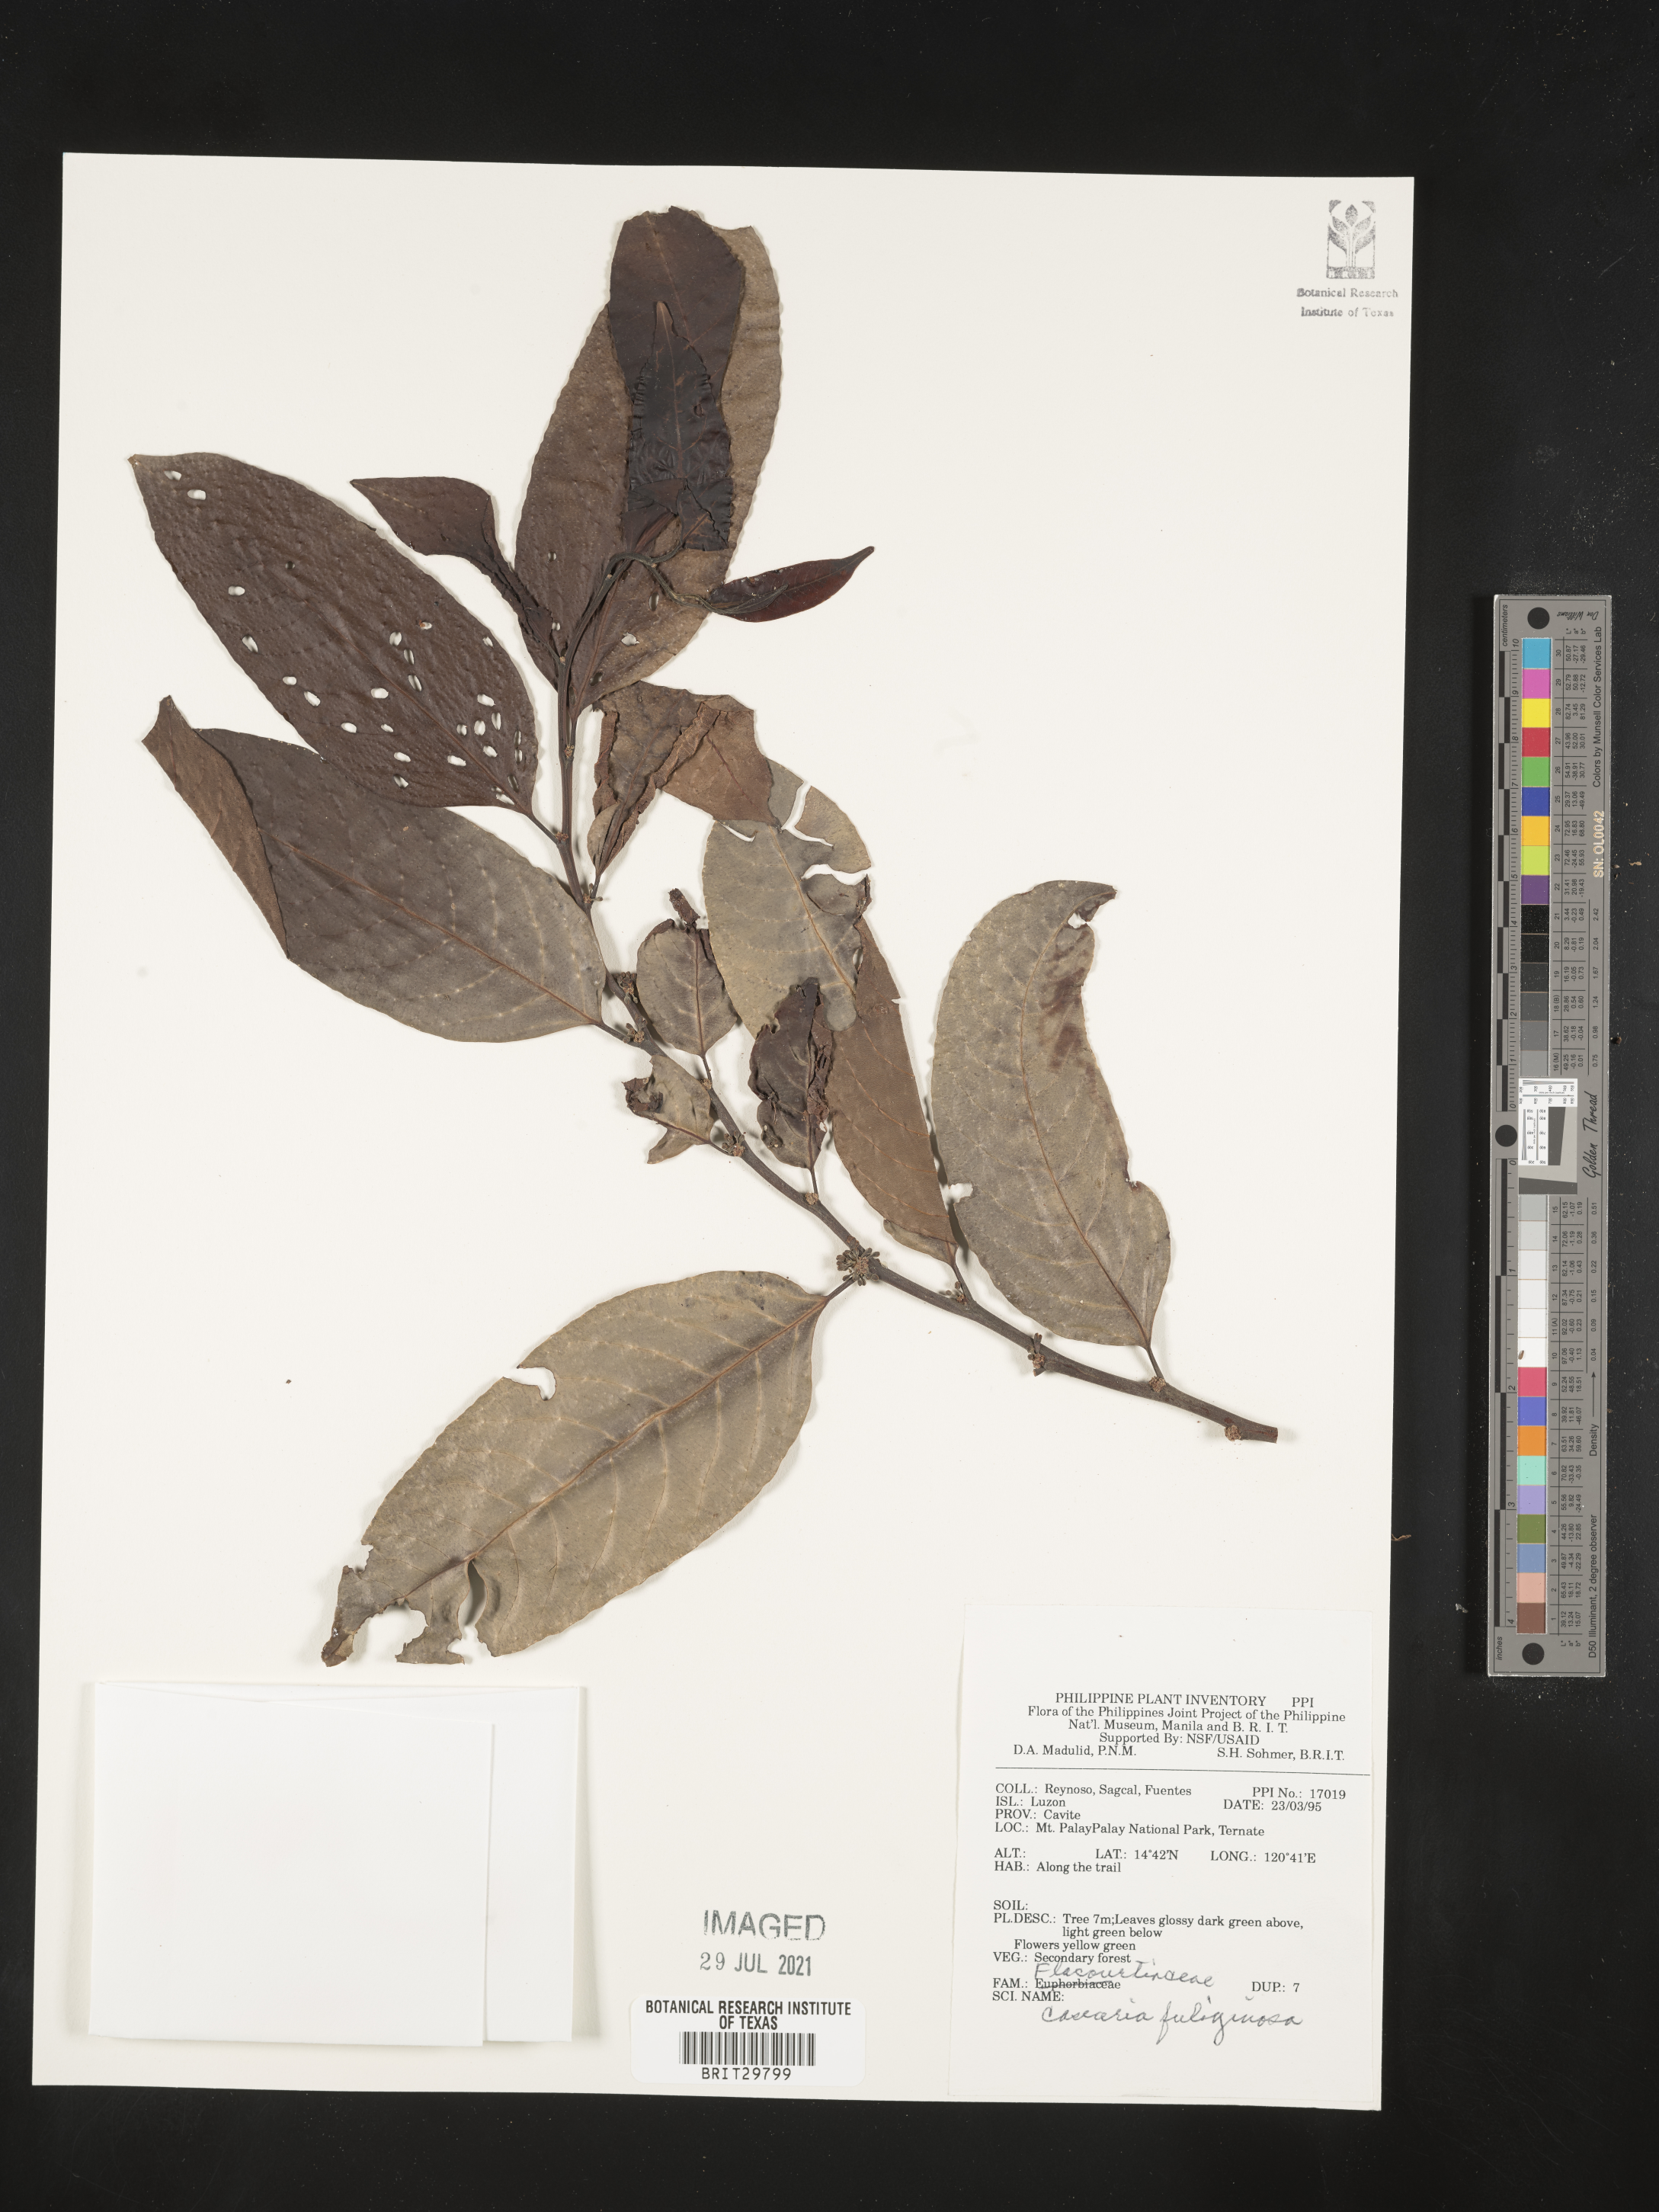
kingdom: Plantae
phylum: Tracheophyta
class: Magnoliopsida
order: Malpighiales
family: Salicaceae
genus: Casearia
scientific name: Casearia fuliginosa
